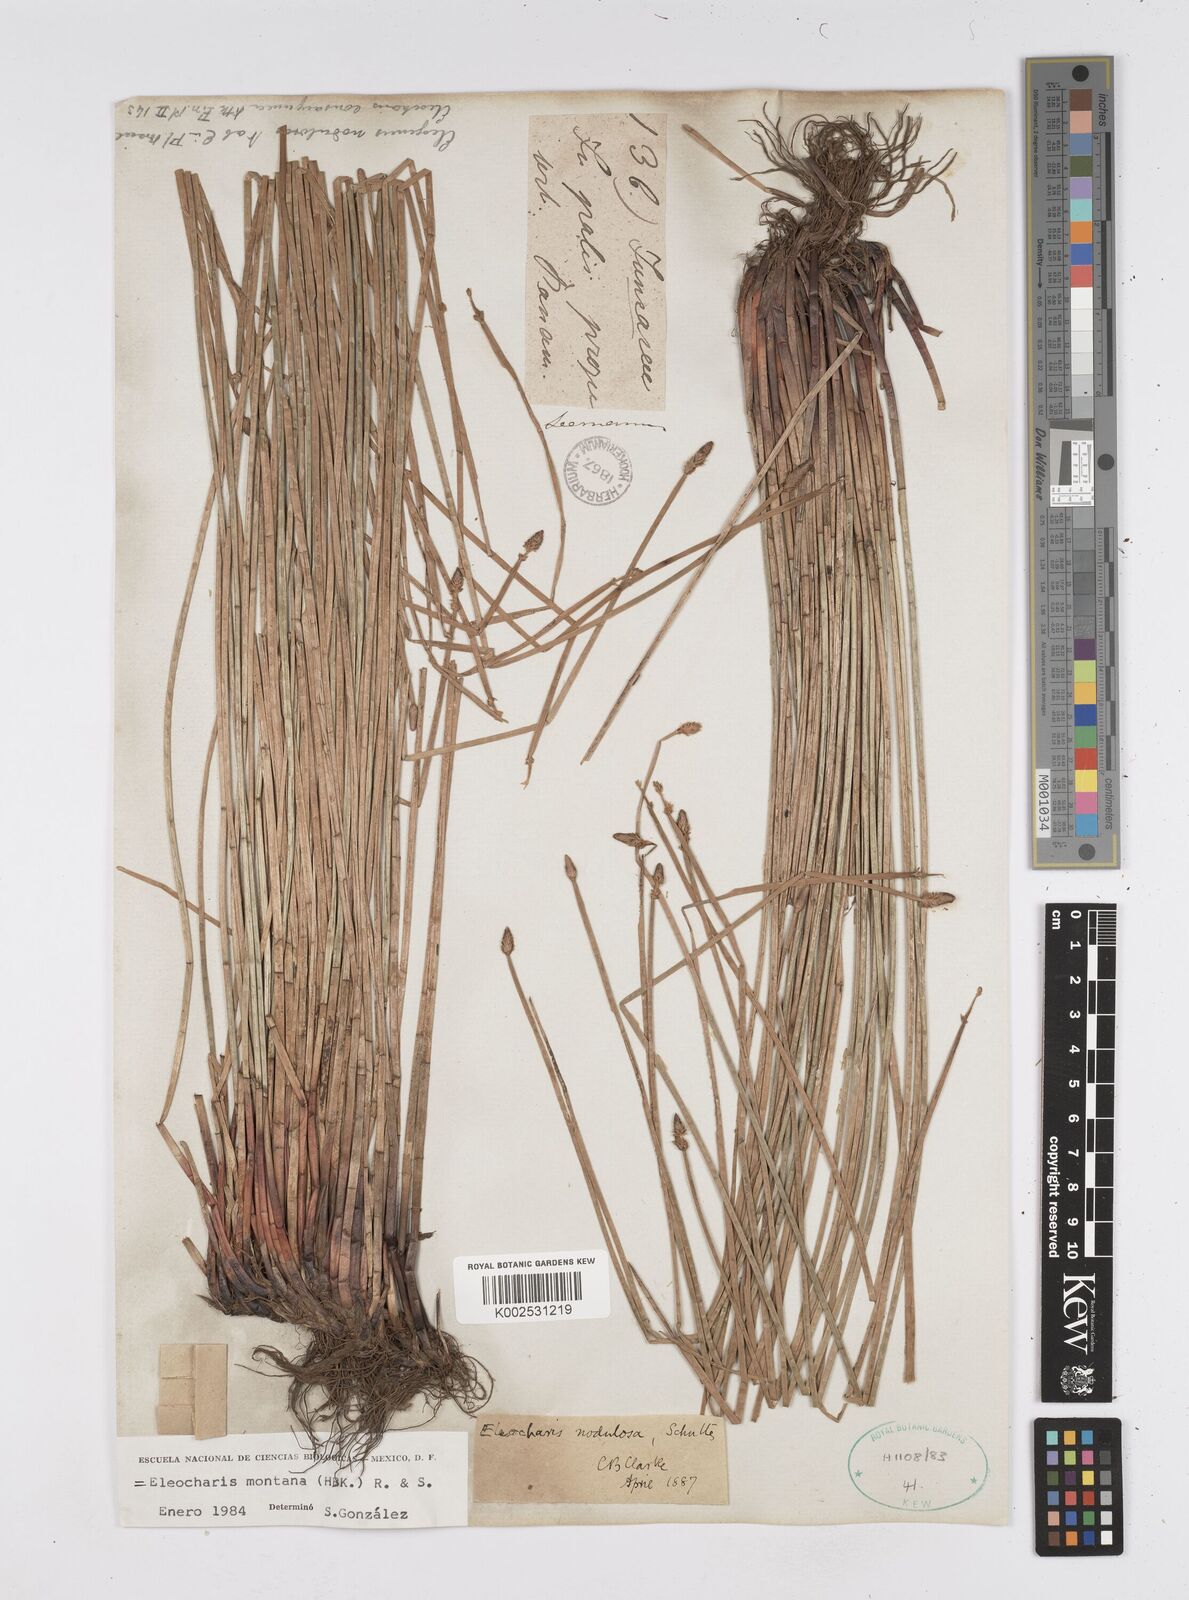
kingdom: Plantae
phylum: Tracheophyta
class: Liliopsida
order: Poales
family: Cyperaceae
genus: Eleocharis
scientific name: Eleocharis montana
